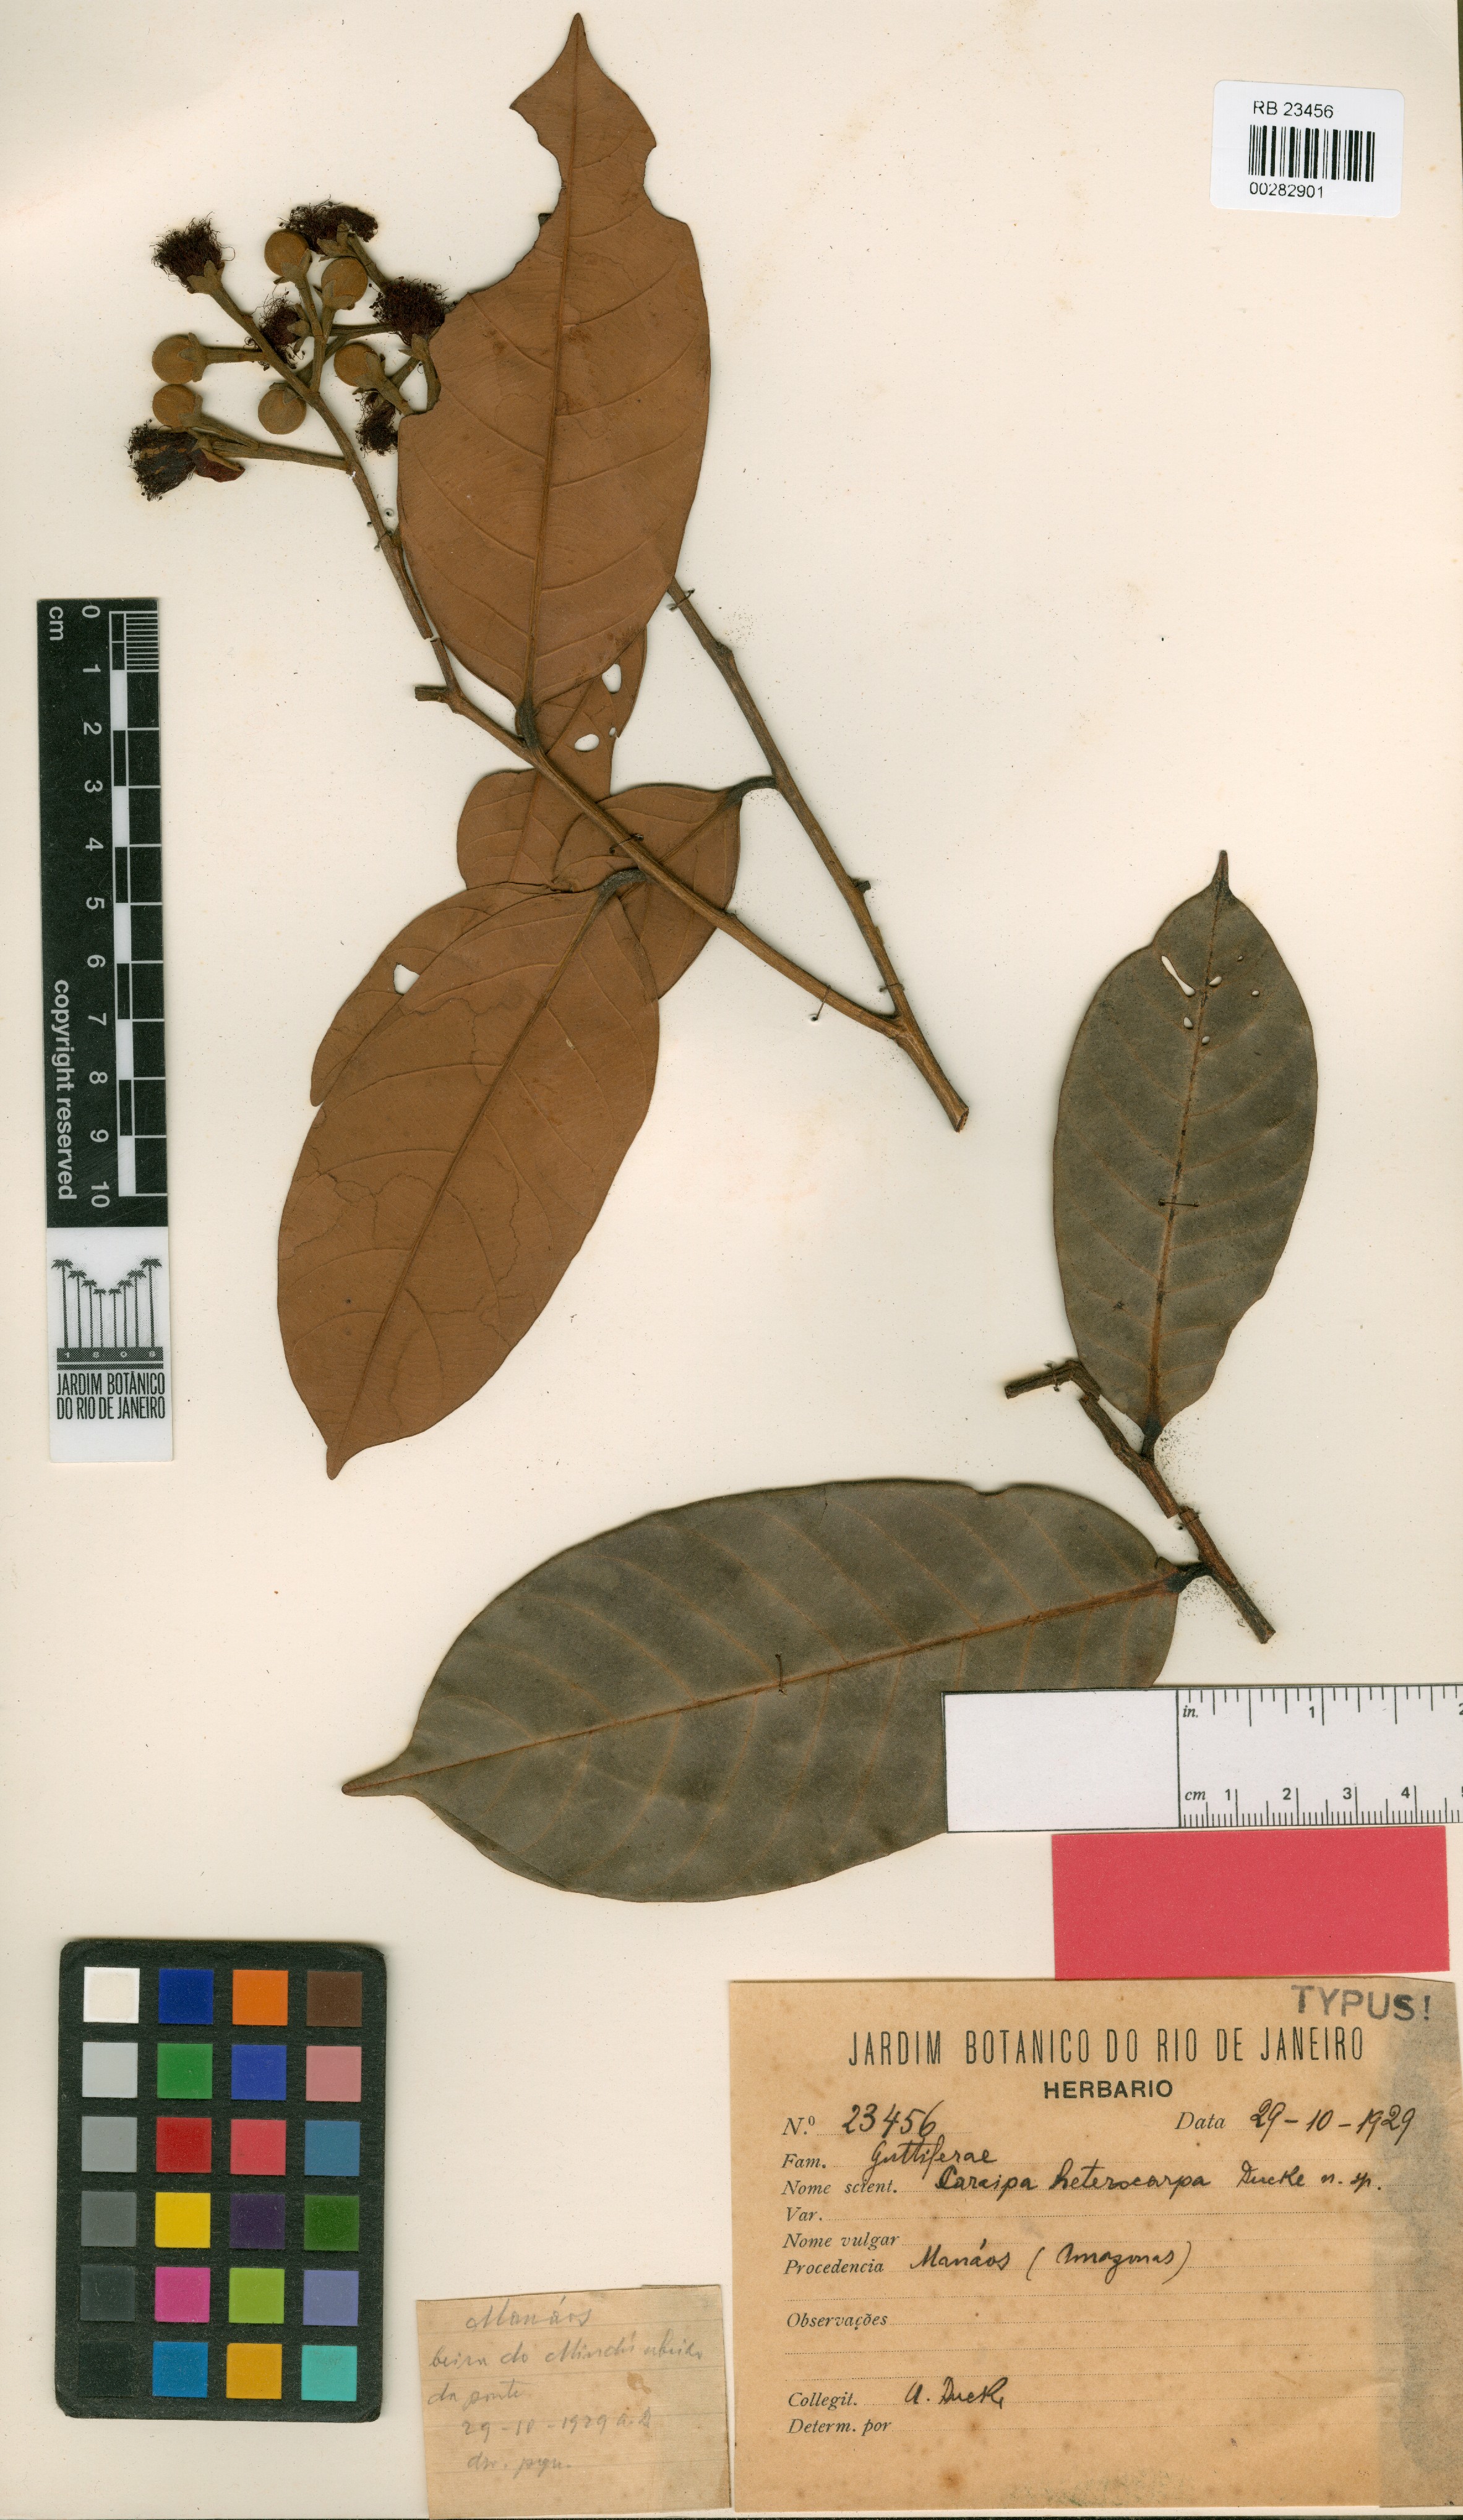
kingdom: Plantae
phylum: Tracheophyta
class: Magnoliopsida
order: Malpighiales
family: Calophyllaceae
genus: Caraipa
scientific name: Caraipa heterocarpa
